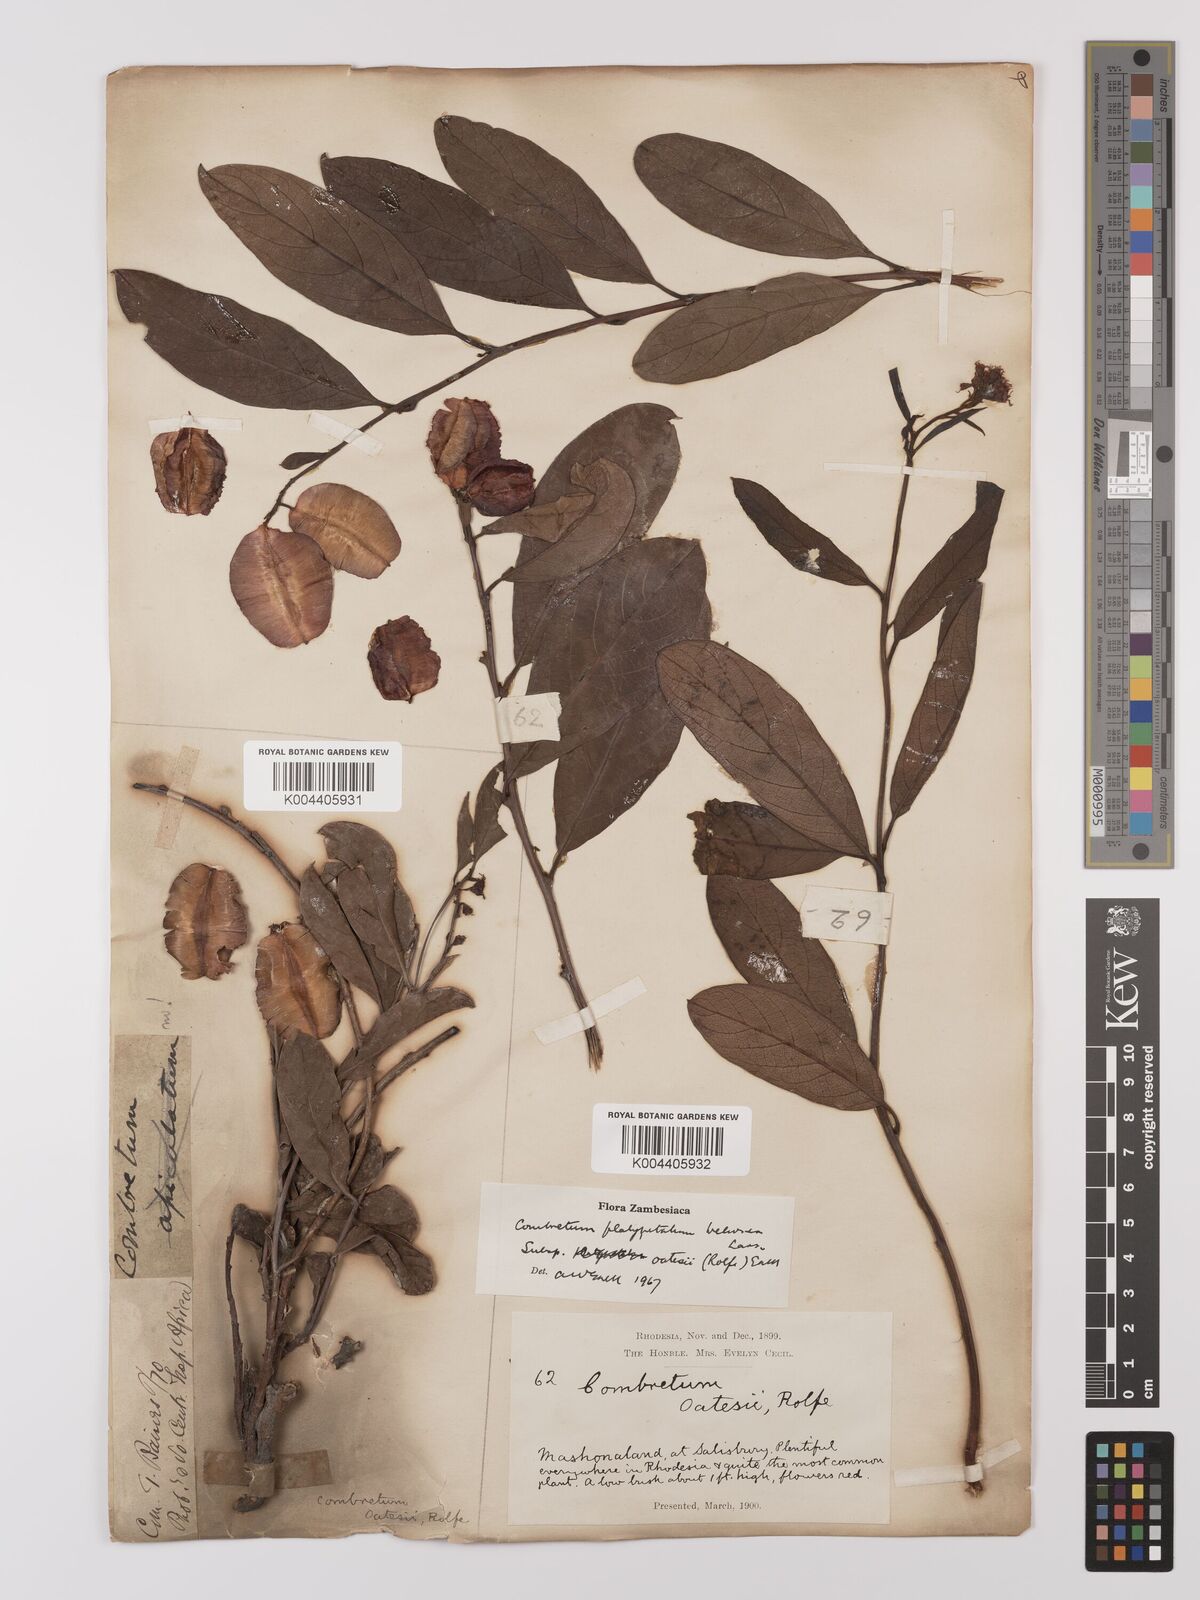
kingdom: Plantae
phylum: Tracheophyta
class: Magnoliopsida
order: Myrtales
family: Combretaceae
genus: Combretum
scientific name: Combretum oatesii
